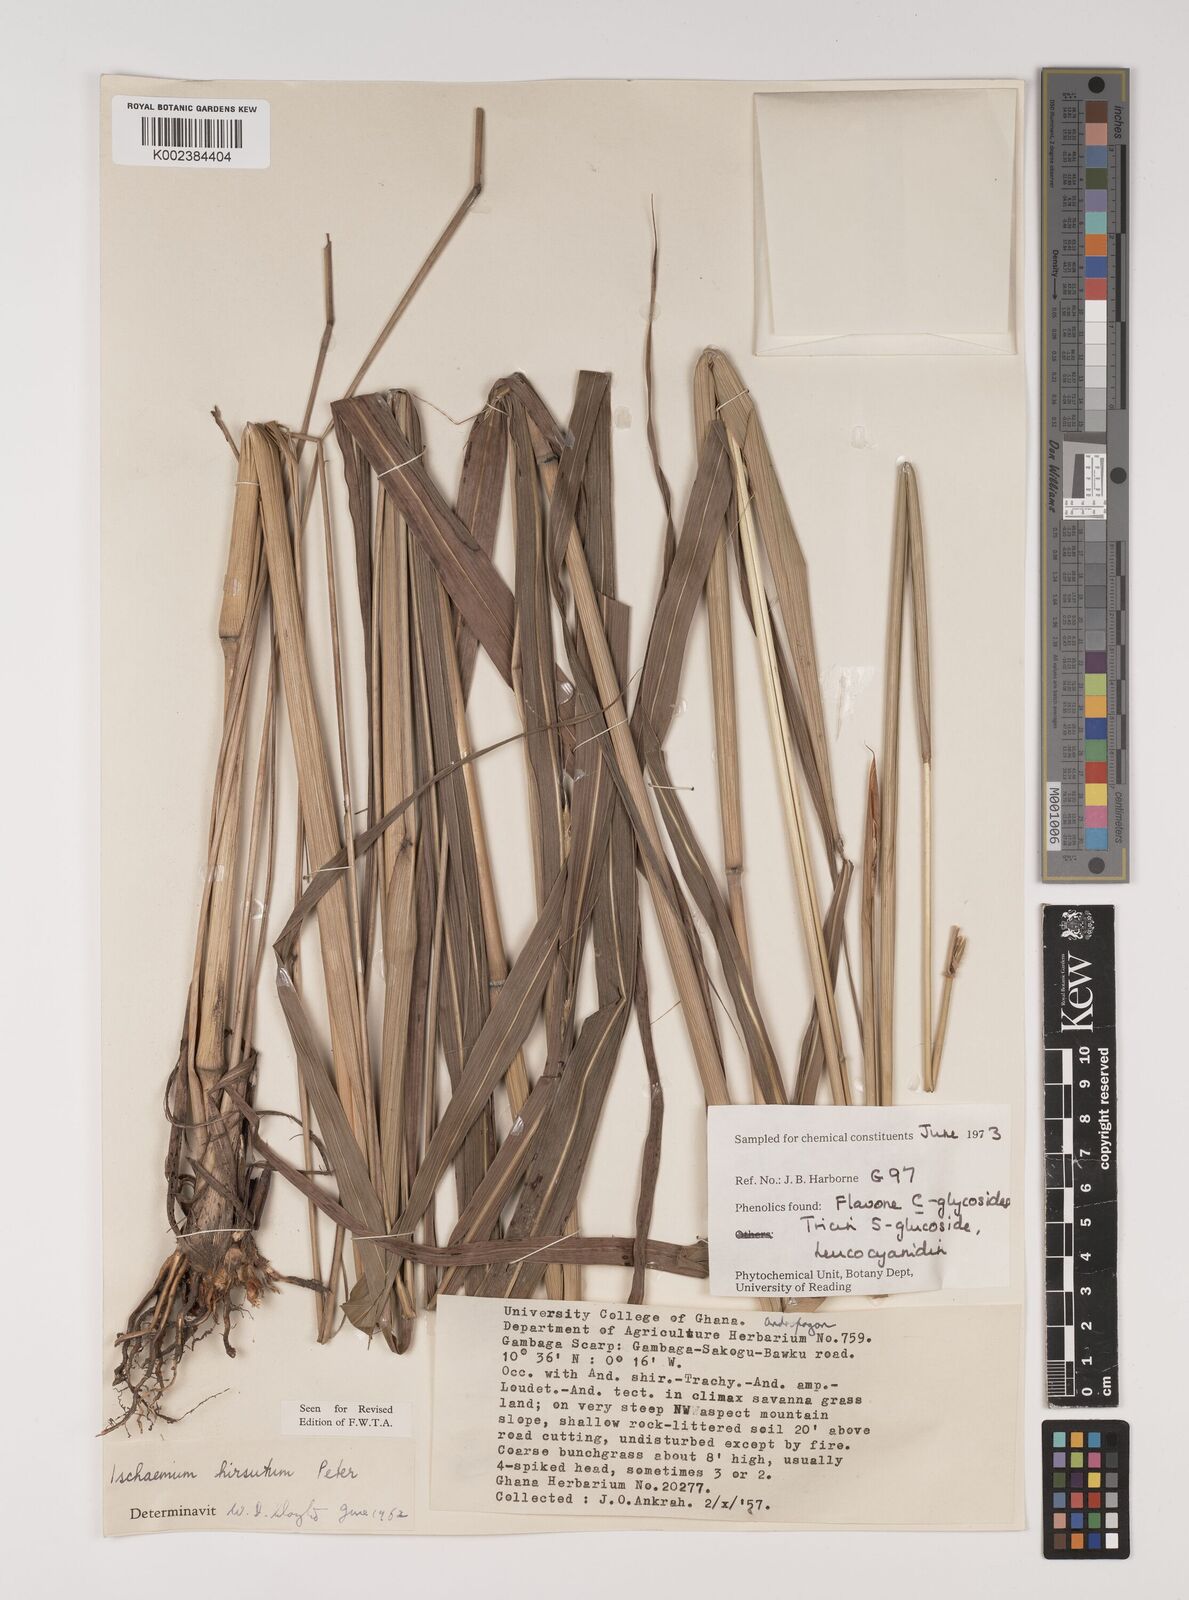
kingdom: Plantae
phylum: Tracheophyta
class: Liliopsida
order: Poales
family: Poaceae
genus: Rottboellia
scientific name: Rottboellia villosa
